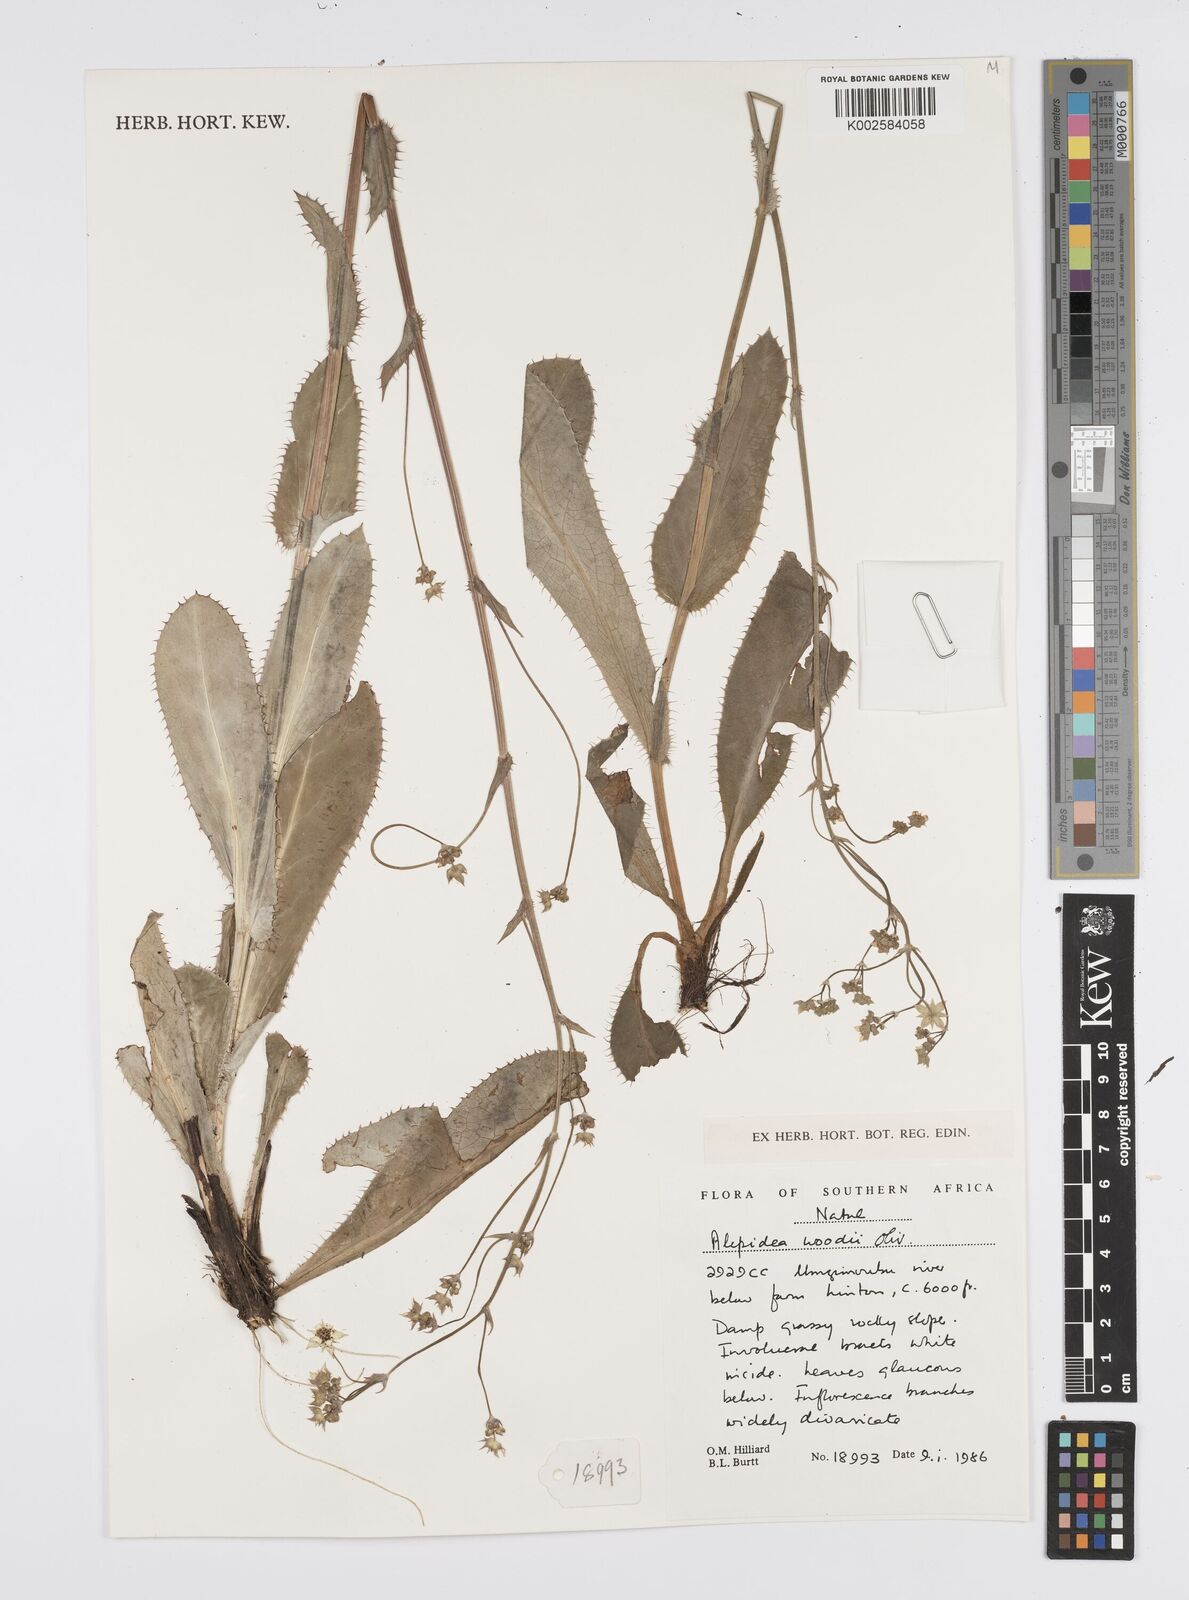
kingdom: Plantae
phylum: Tracheophyta
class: Magnoliopsida
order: Apiales
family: Apiaceae
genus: Alepidea
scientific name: Alepidea woodii
